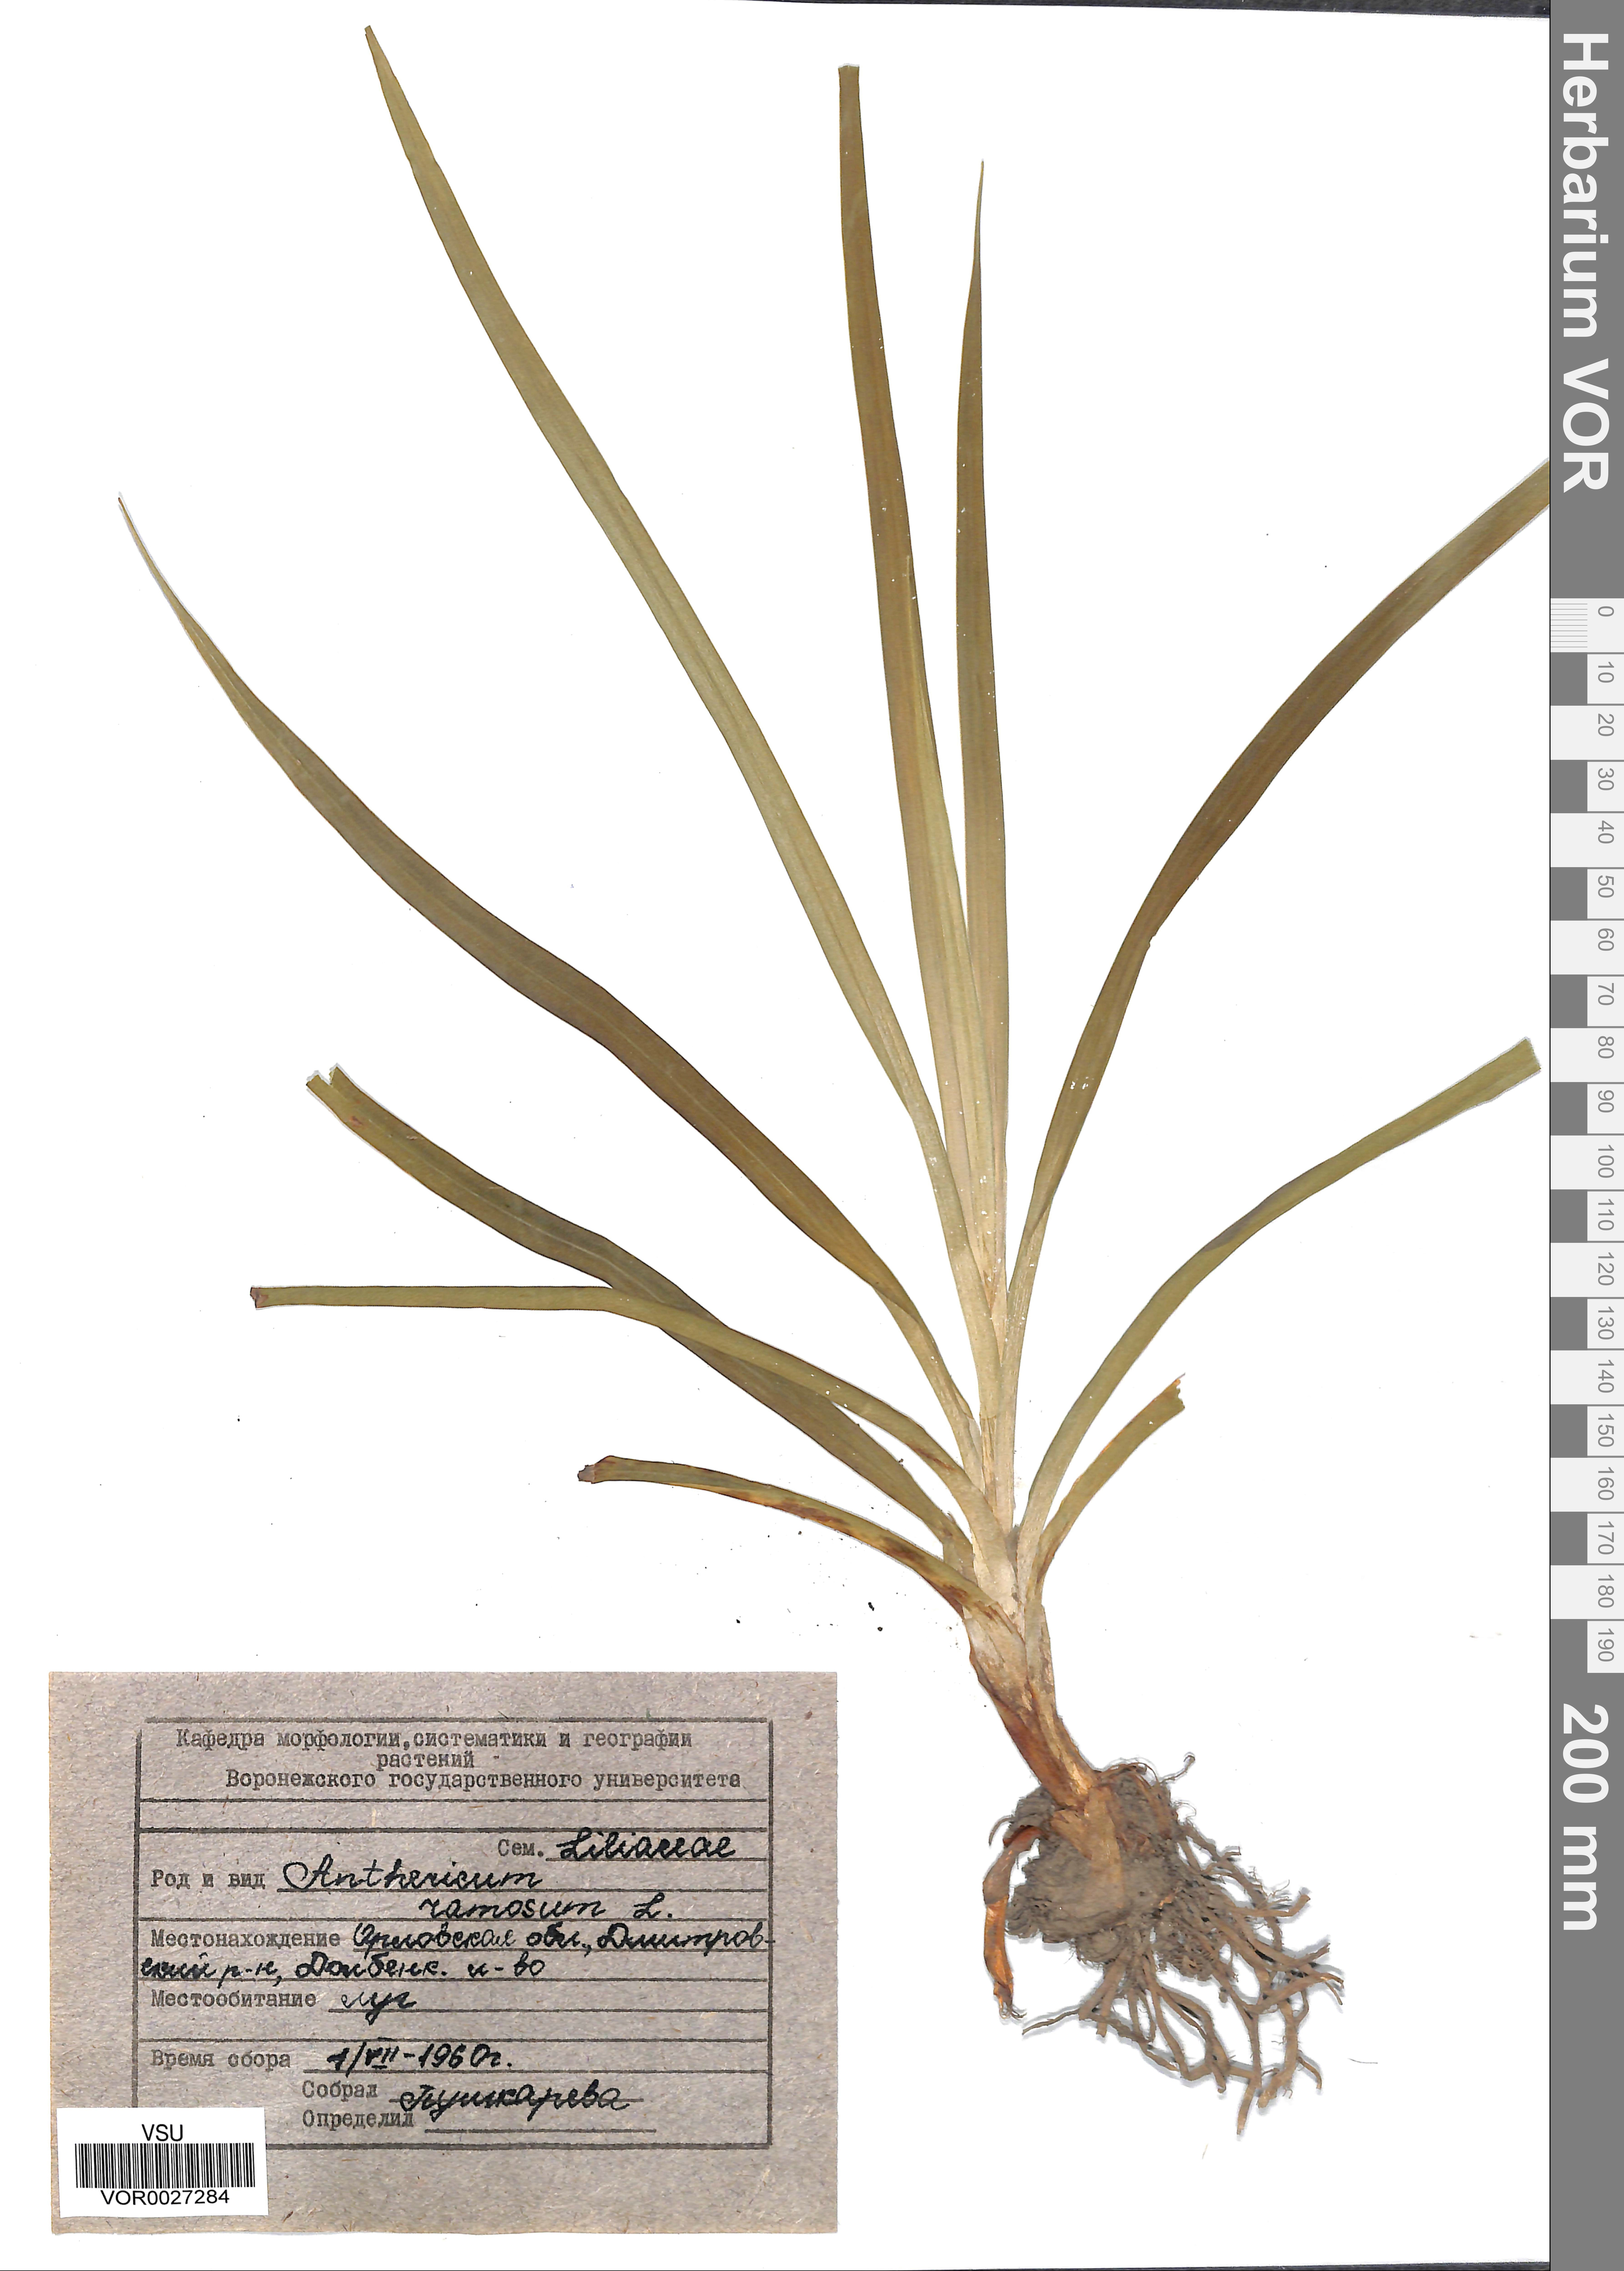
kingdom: Plantae
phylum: Tracheophyta
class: Liliopsida
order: Asparagales
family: Asparagaceae
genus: Anthericum
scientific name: Anthericum ramosum
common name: Branched st. bernard's-lily
